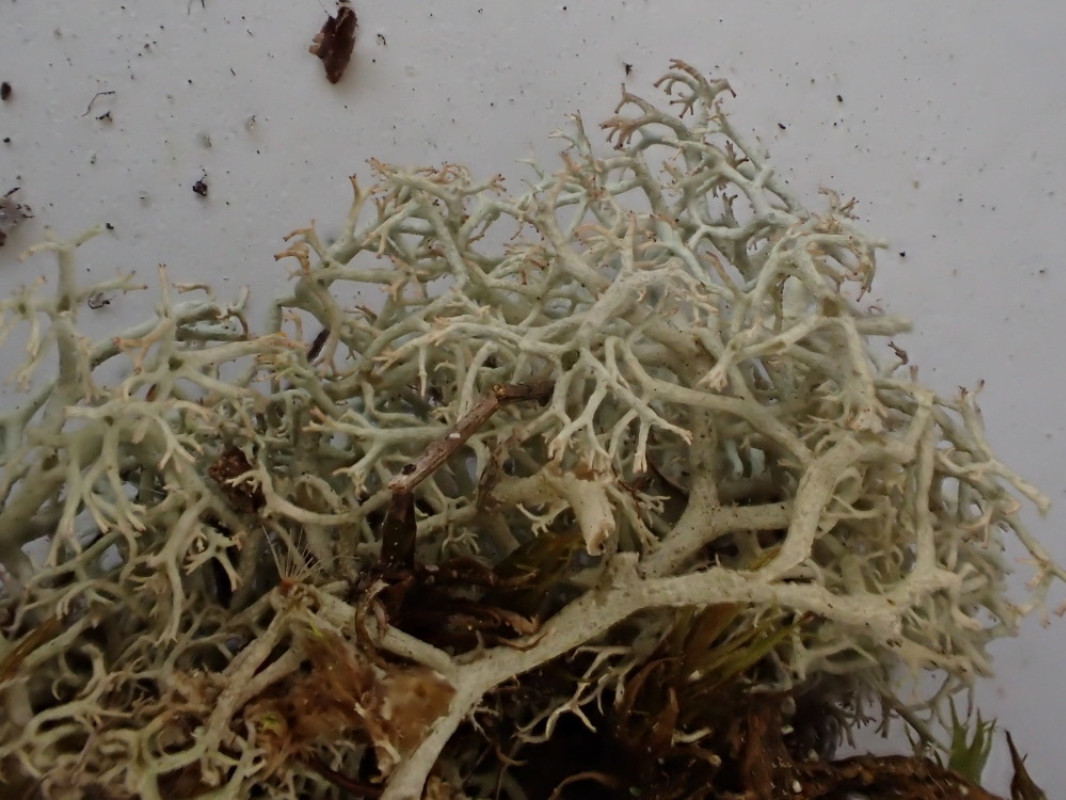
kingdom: Fungi
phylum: Ascomycota
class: Lecanoromycetes
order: Lecanorales
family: Cladoniaceae
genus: Cladonia
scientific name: Cladonia portentosa
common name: hede-rensdyrlav
